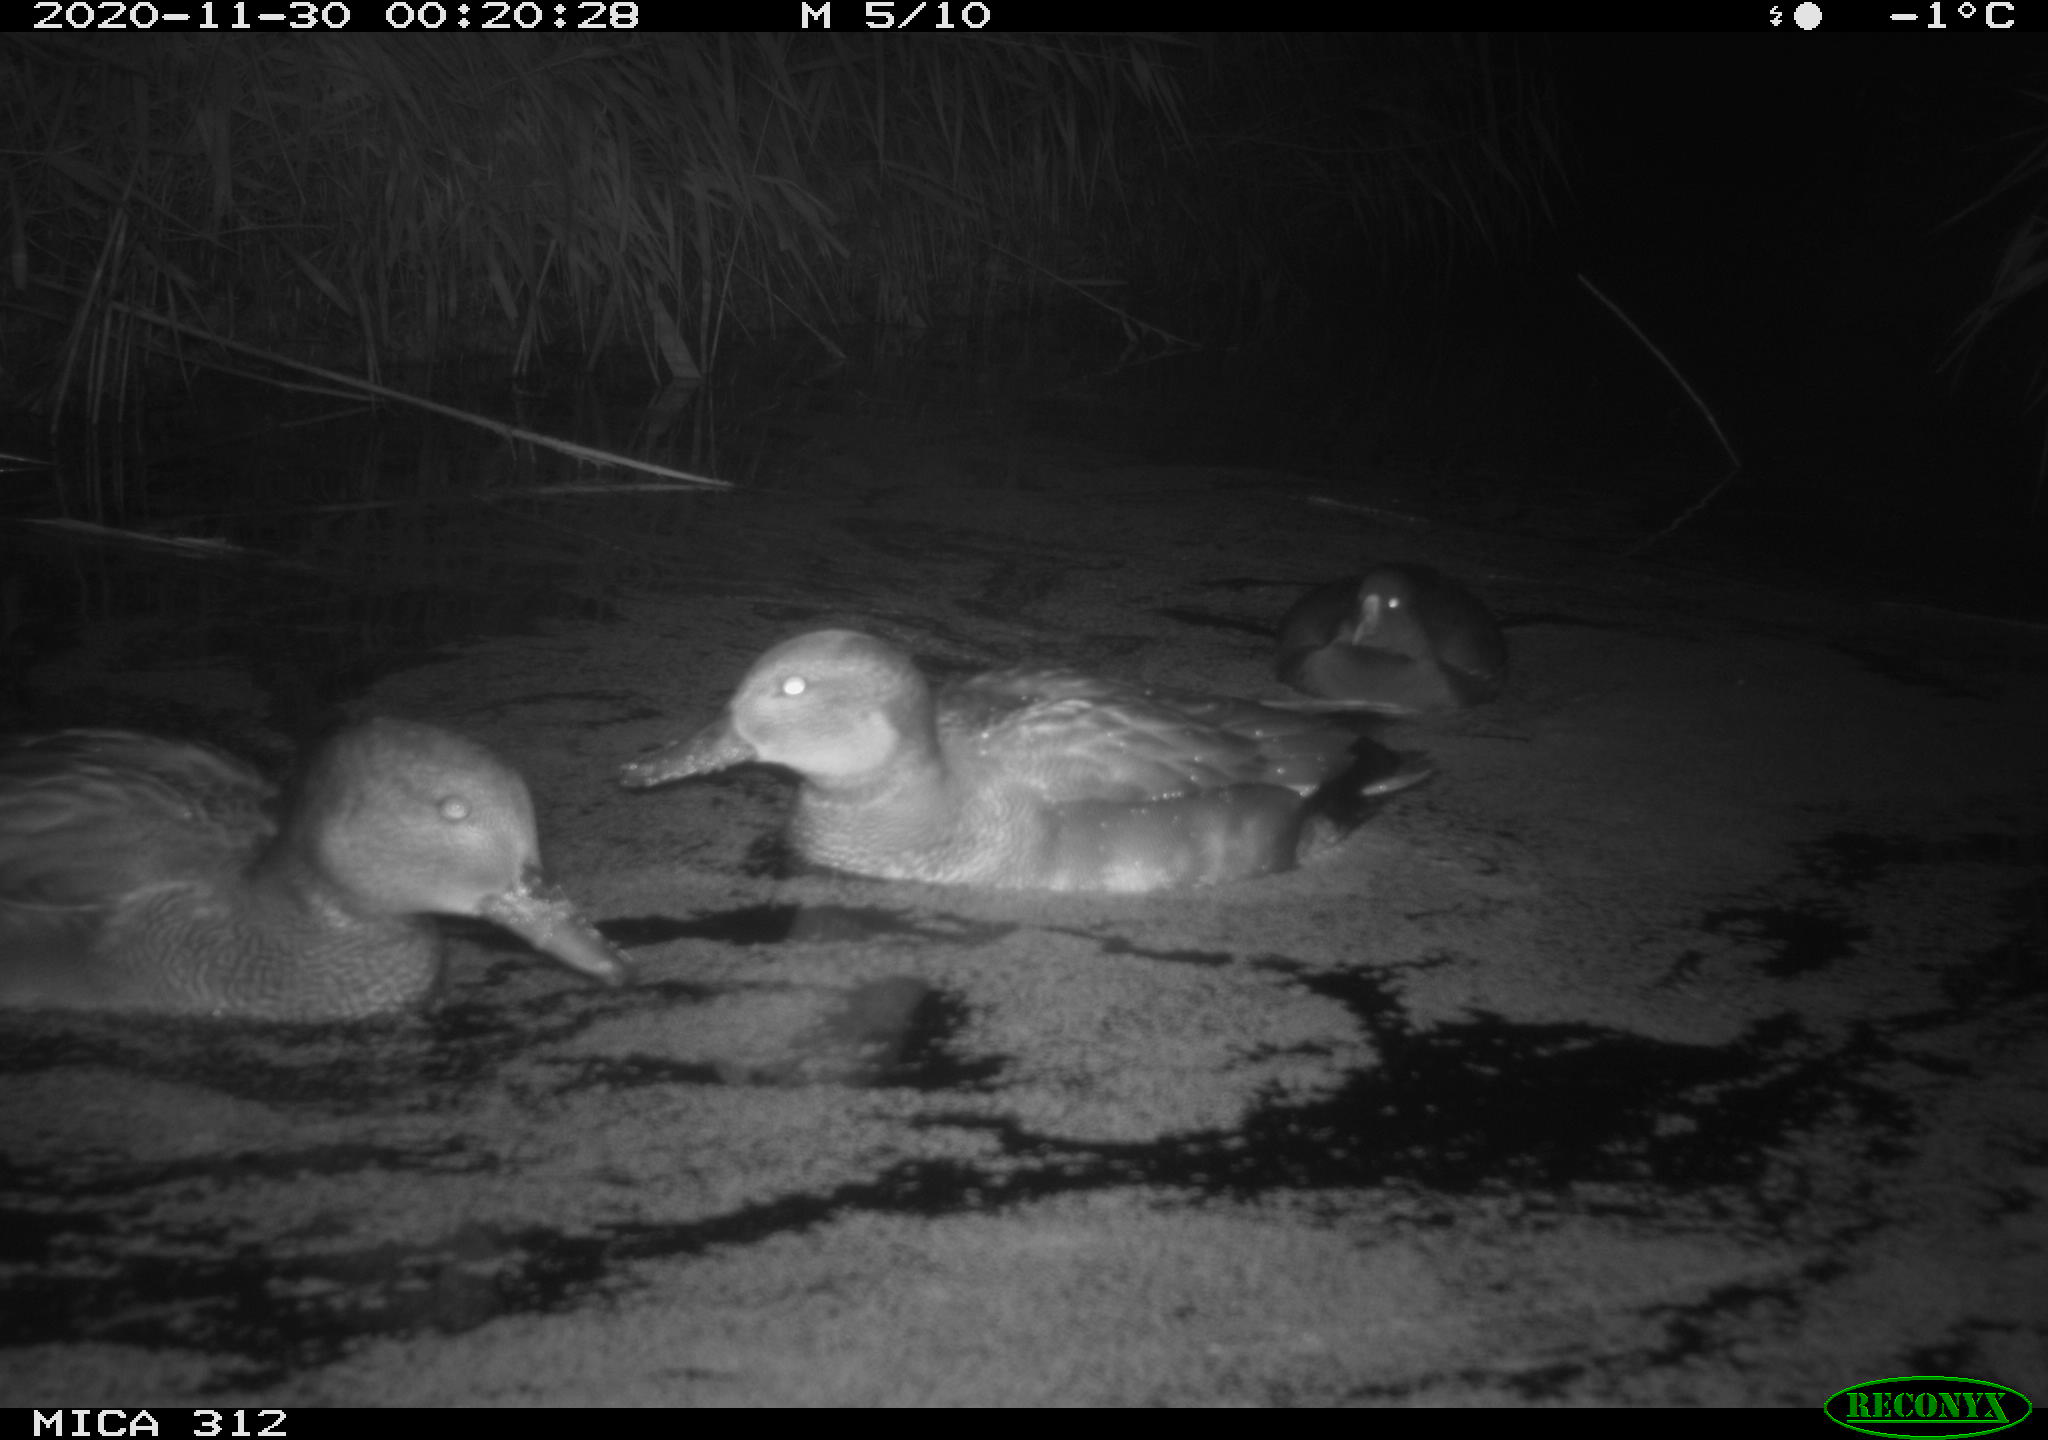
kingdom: Animalia
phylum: Chordata
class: Aves
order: Anseriformes
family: Anatidae
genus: Mareca
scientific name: Mareca strepera
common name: Gadwall
